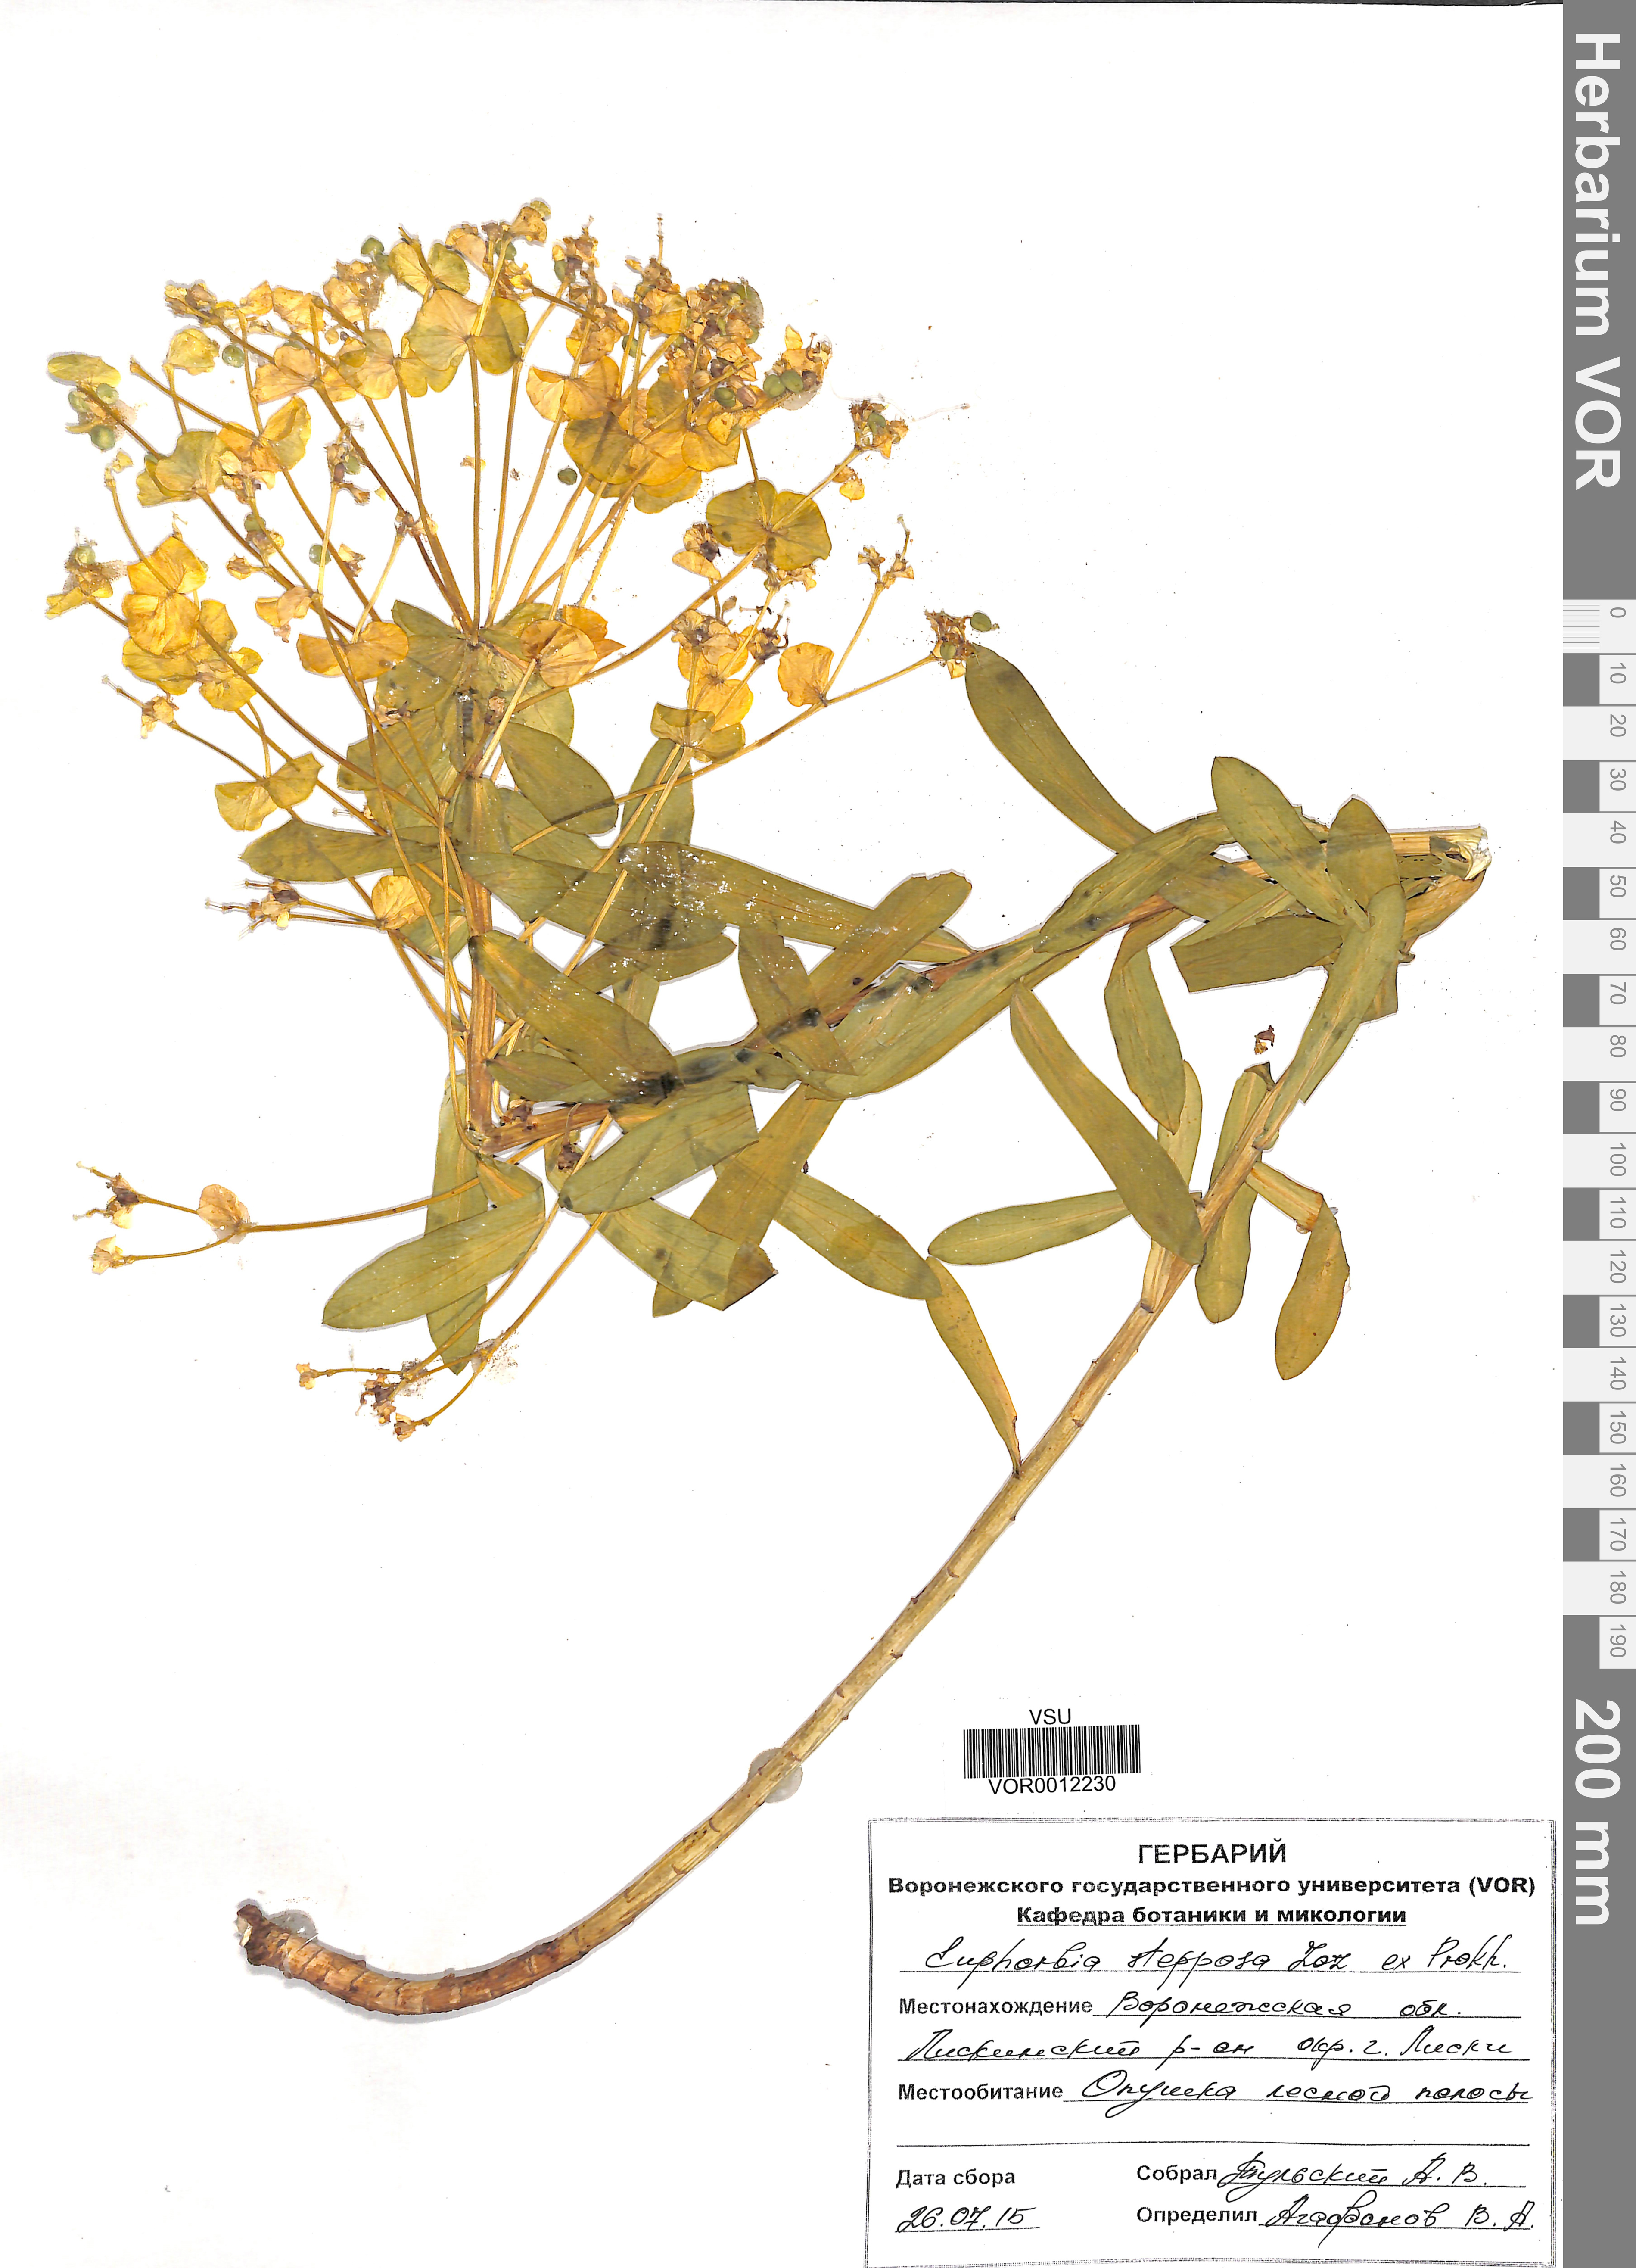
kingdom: Plantae
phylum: Tracheophyta
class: Magnoliopsida
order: Malpighiales
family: Euphorbiaceae
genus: Euphorbia
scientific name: Euphorbia stepposa
